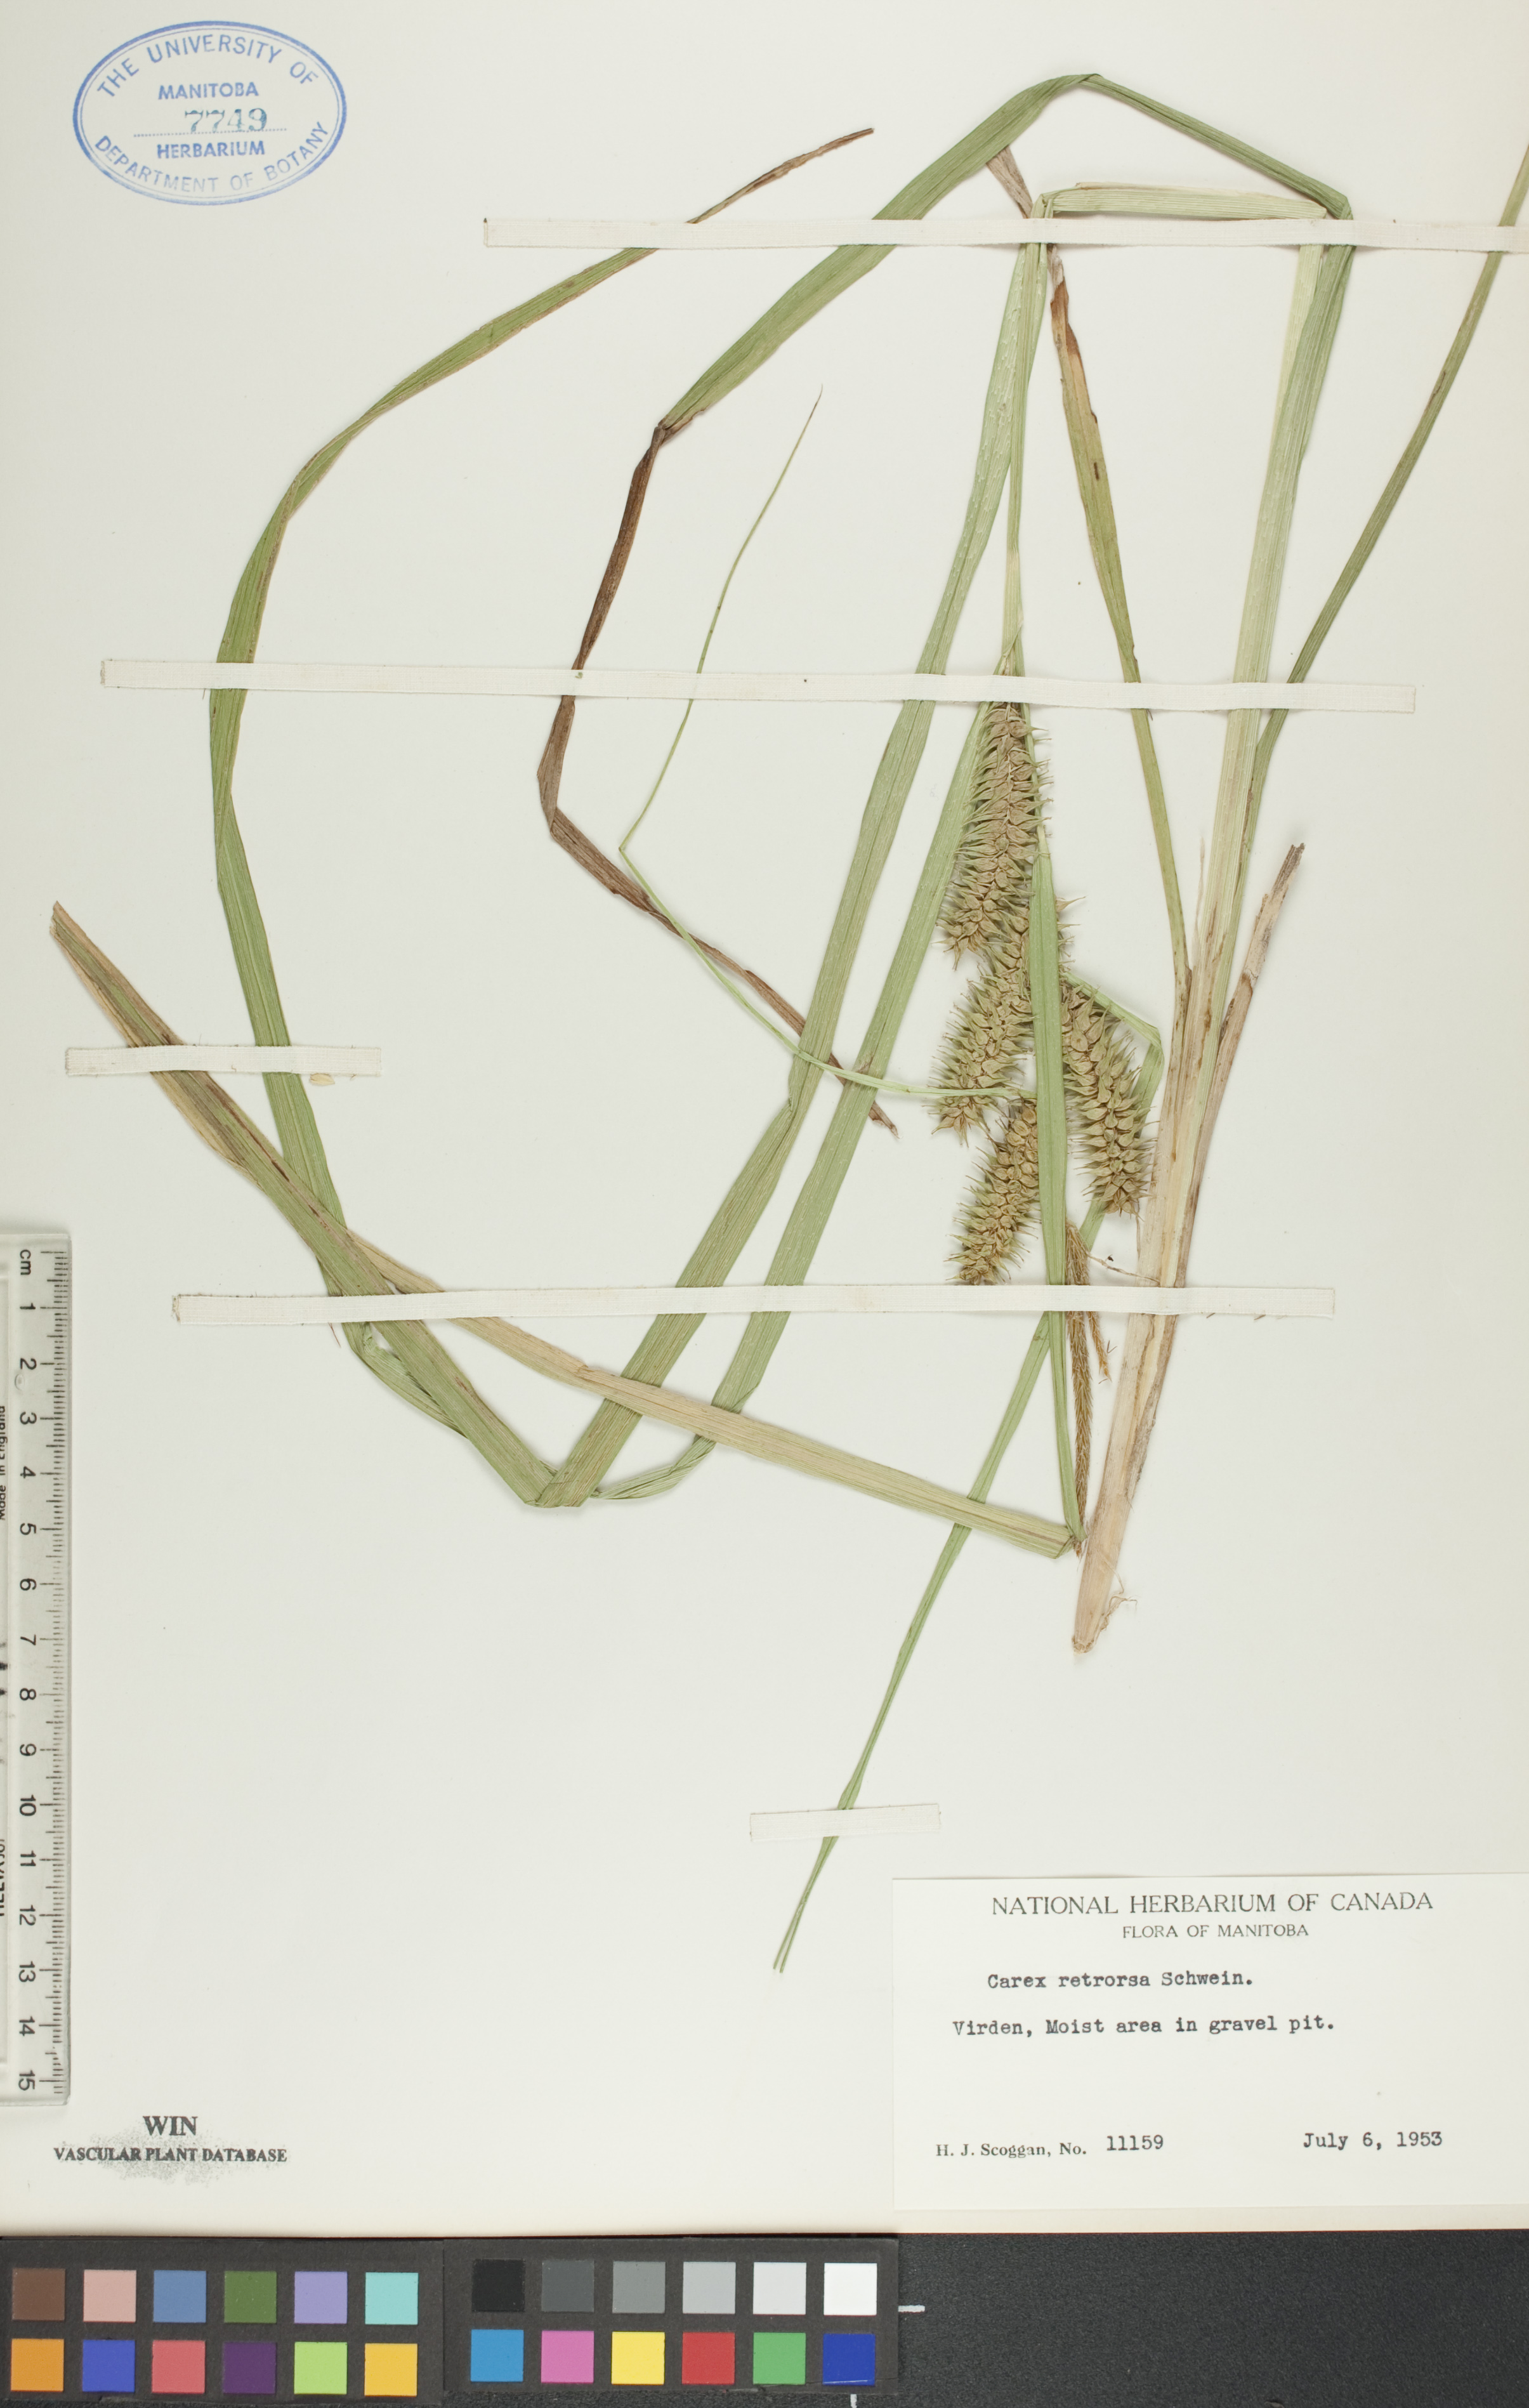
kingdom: Plantae
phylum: Tracheophyta
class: Liliopsida
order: Poales
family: Cyperaceae
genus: Carex
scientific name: Carex retrorsa
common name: Knot-sheath sedge
